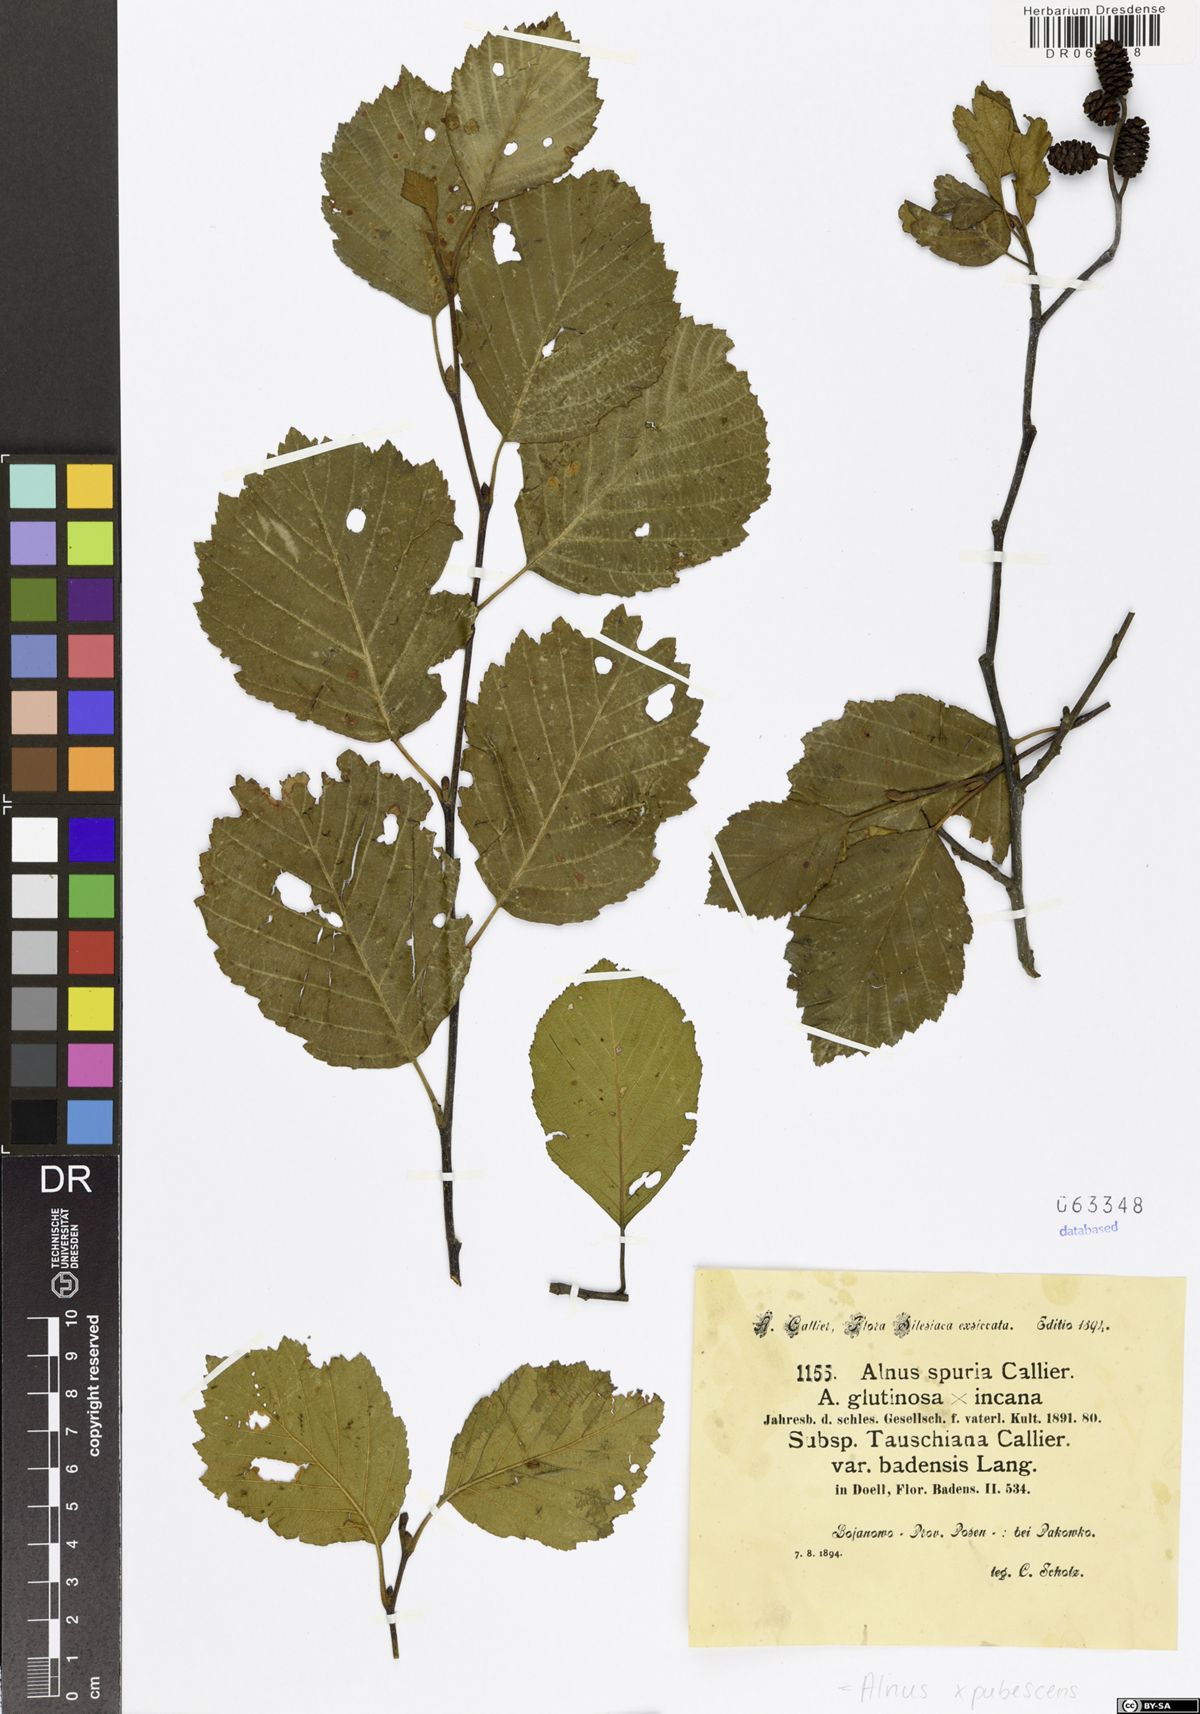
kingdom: Plantae
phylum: Tracheophyta
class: Magnoliopsida
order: Fagales
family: Betulaceae
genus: Alnus
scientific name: Alnus pubescens
